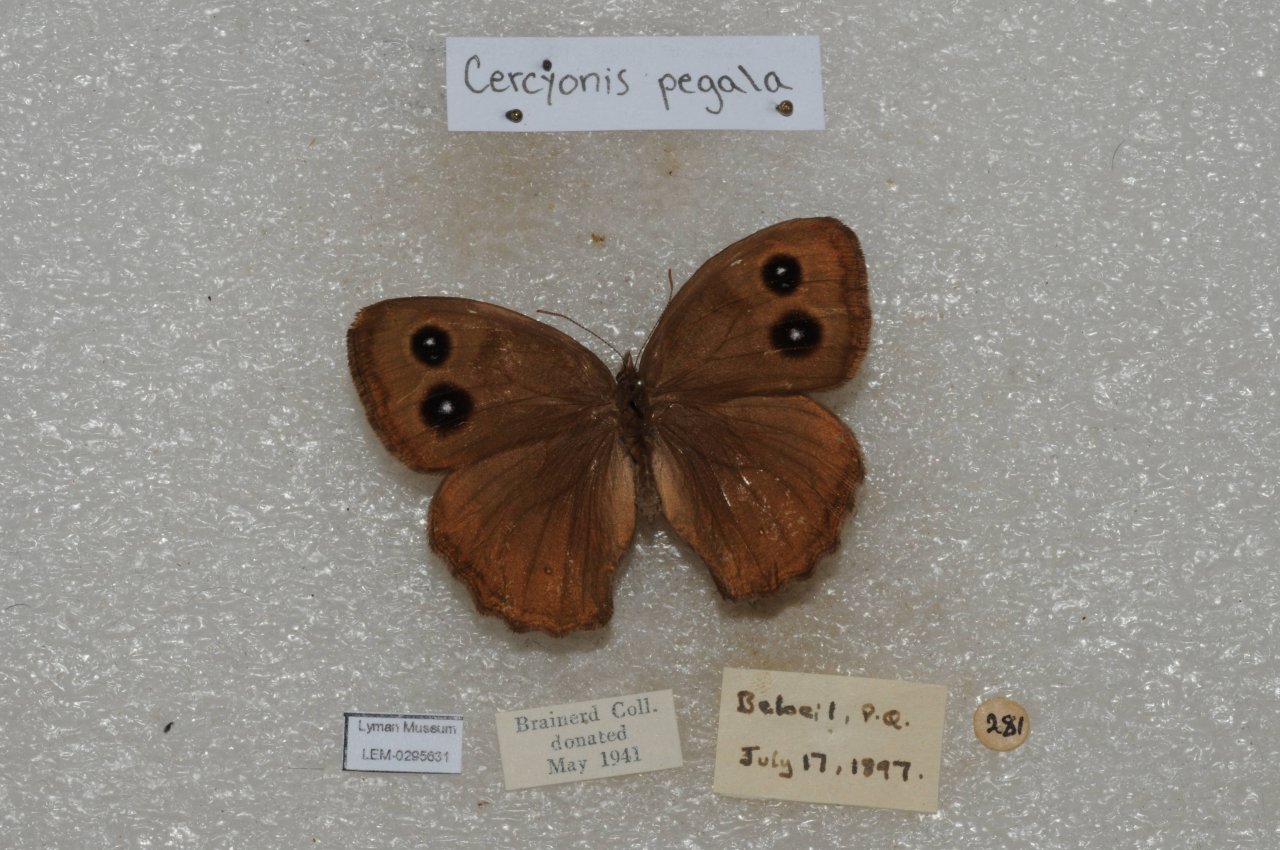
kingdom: Animalia
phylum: Arthropoda
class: Insecta
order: Lepidoptera
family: Nymphalidae
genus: Cercyonis
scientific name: Cercyonis pegala
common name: Common Wood-Nymph
